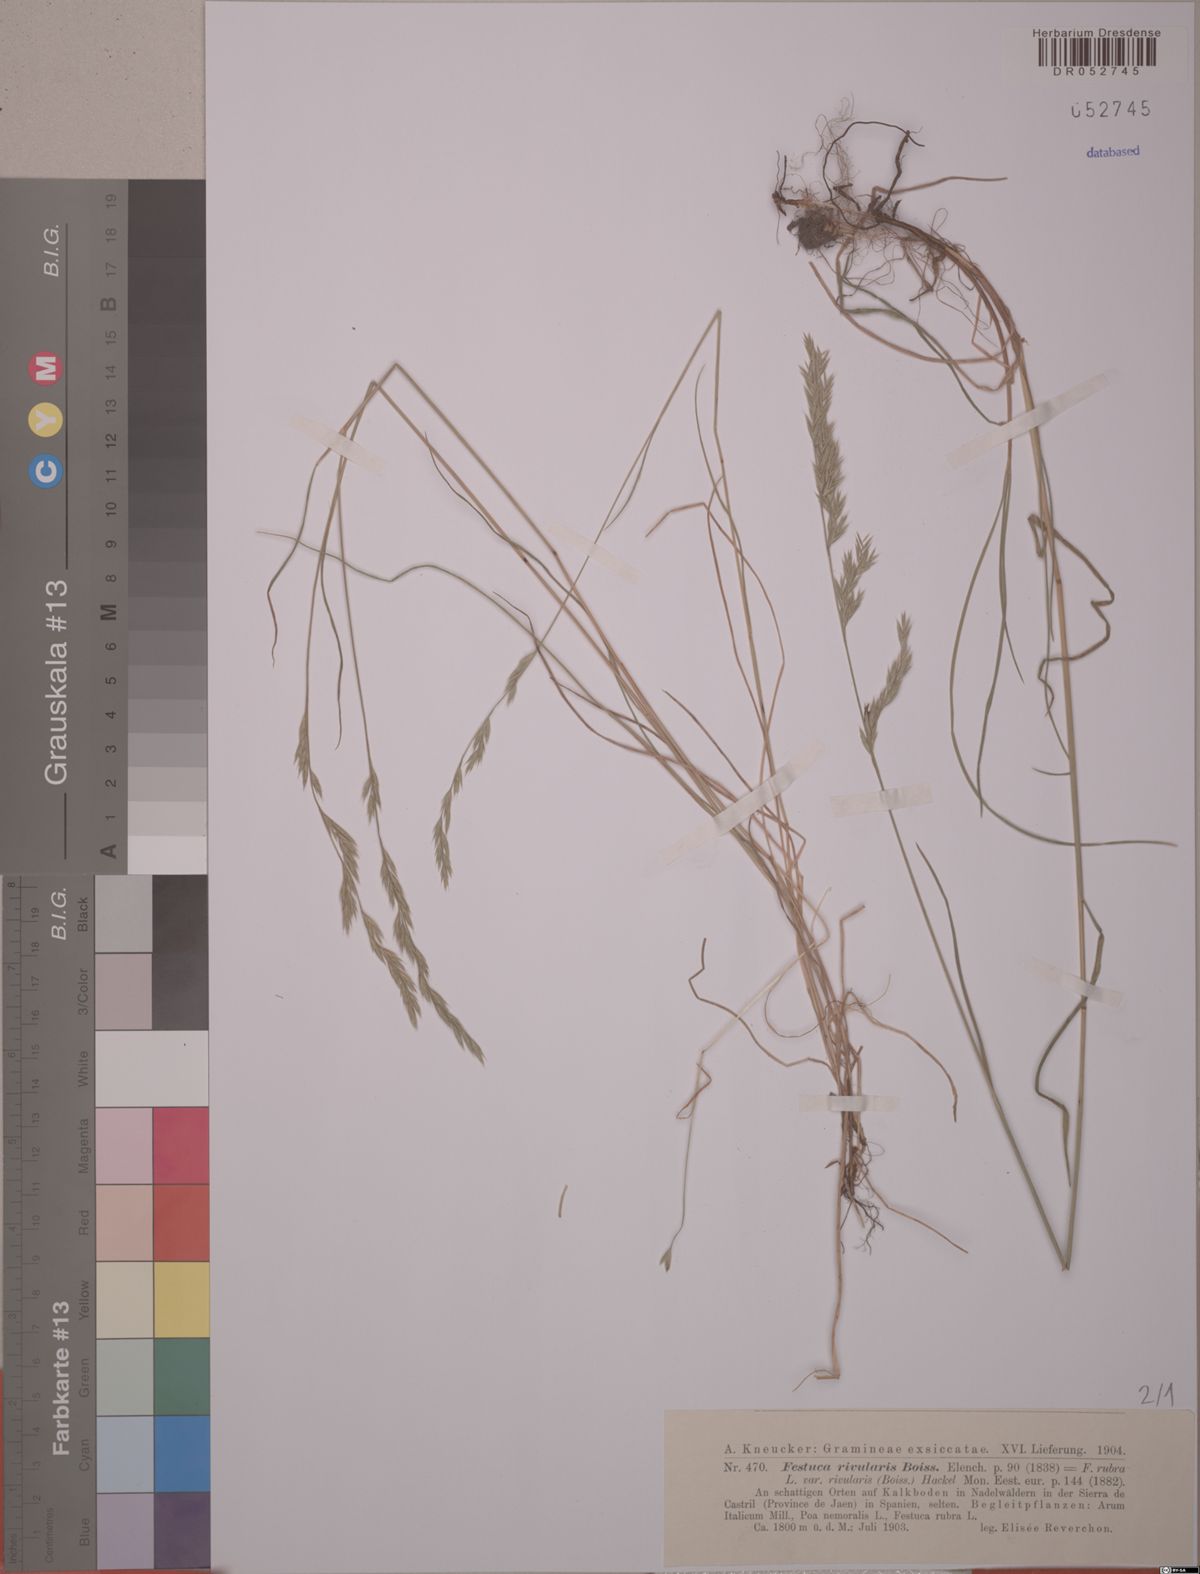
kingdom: Plantae
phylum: Tracheophyta
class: Liliopsida
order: Poales
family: Poaceae
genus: Festuca
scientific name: Festuca rivularis
